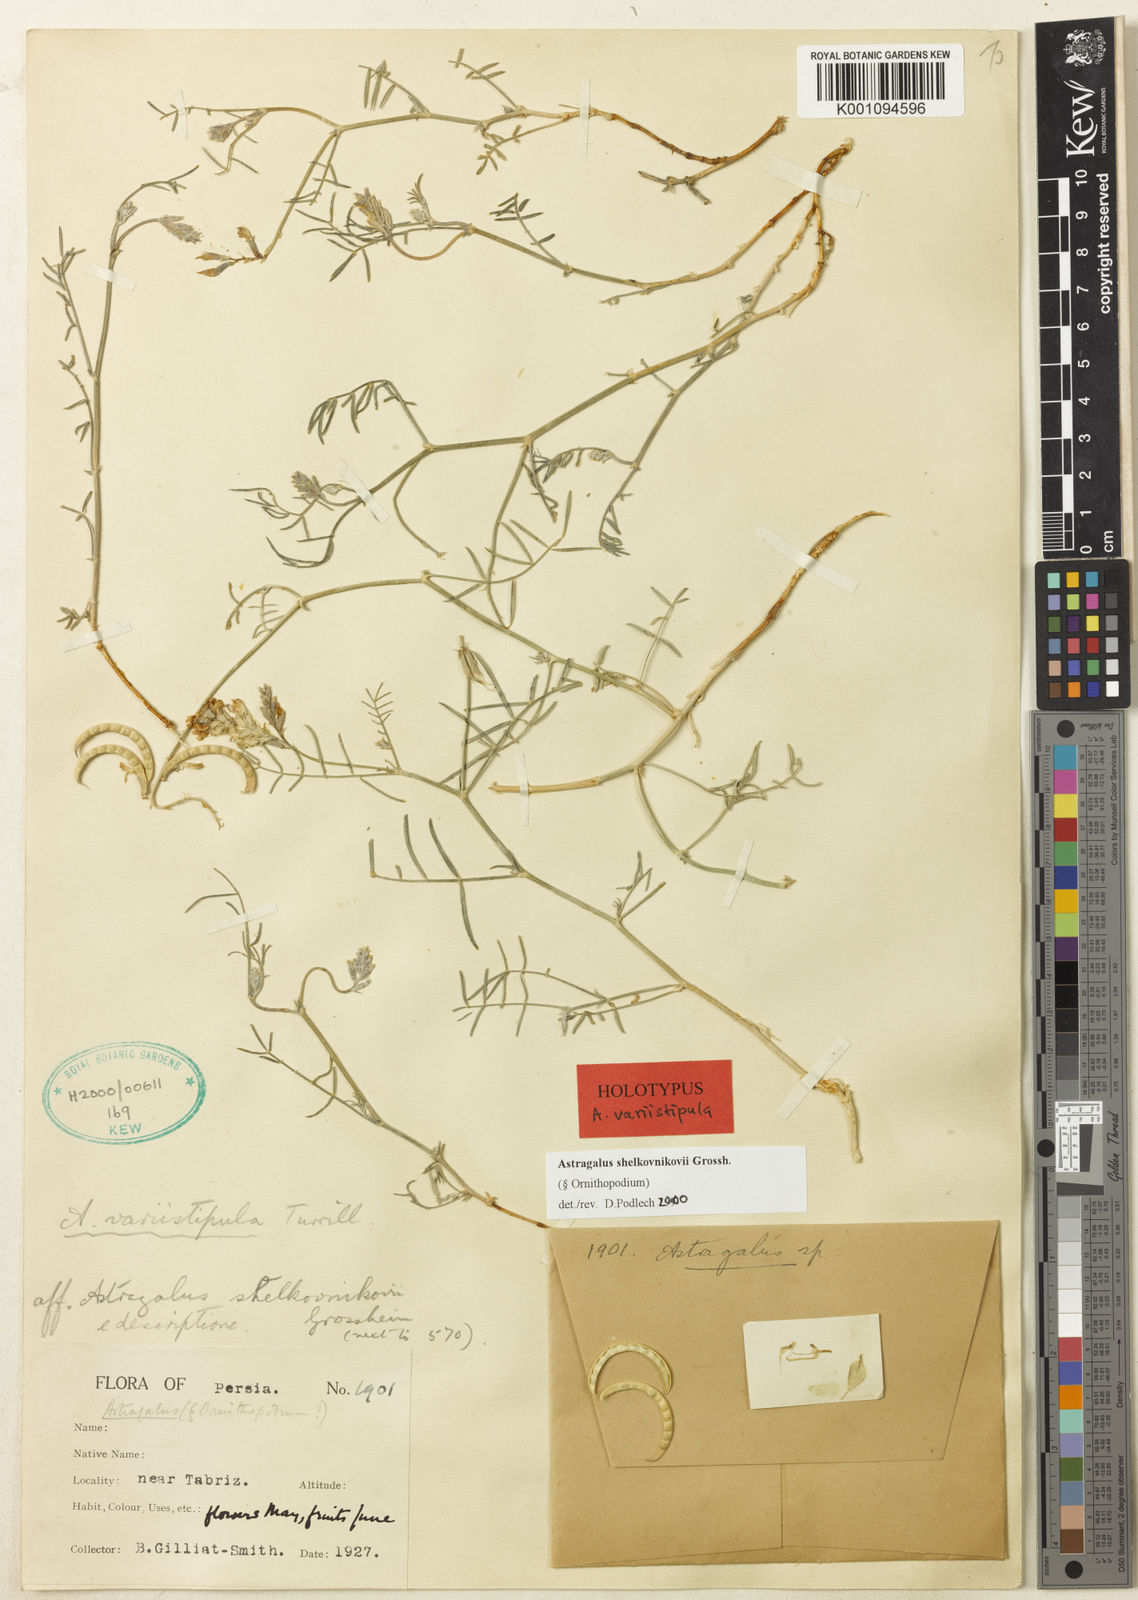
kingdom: Plantae
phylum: Tracheophyta
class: Magnoliopsida
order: Fabales
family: Fabaceae
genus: Astragalus
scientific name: Astragalus
